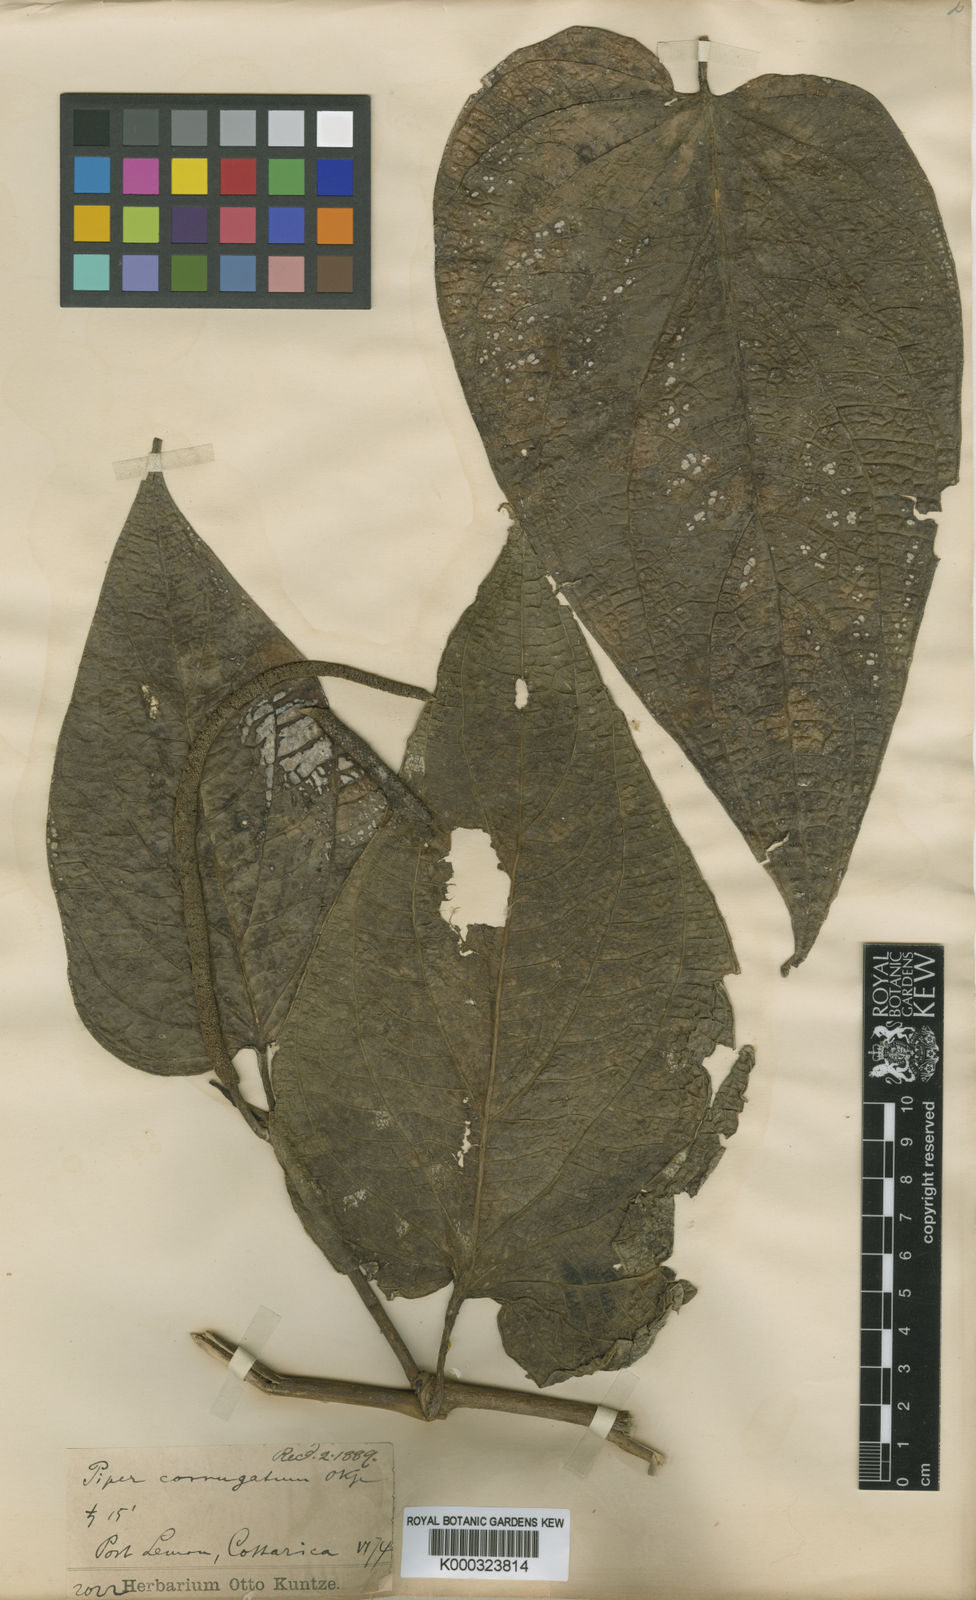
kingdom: Plantae
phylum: Tracheophyta
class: Magnoliopsida
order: Piperales
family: Piperaceae
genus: Piper
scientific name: Piper corrugatum
